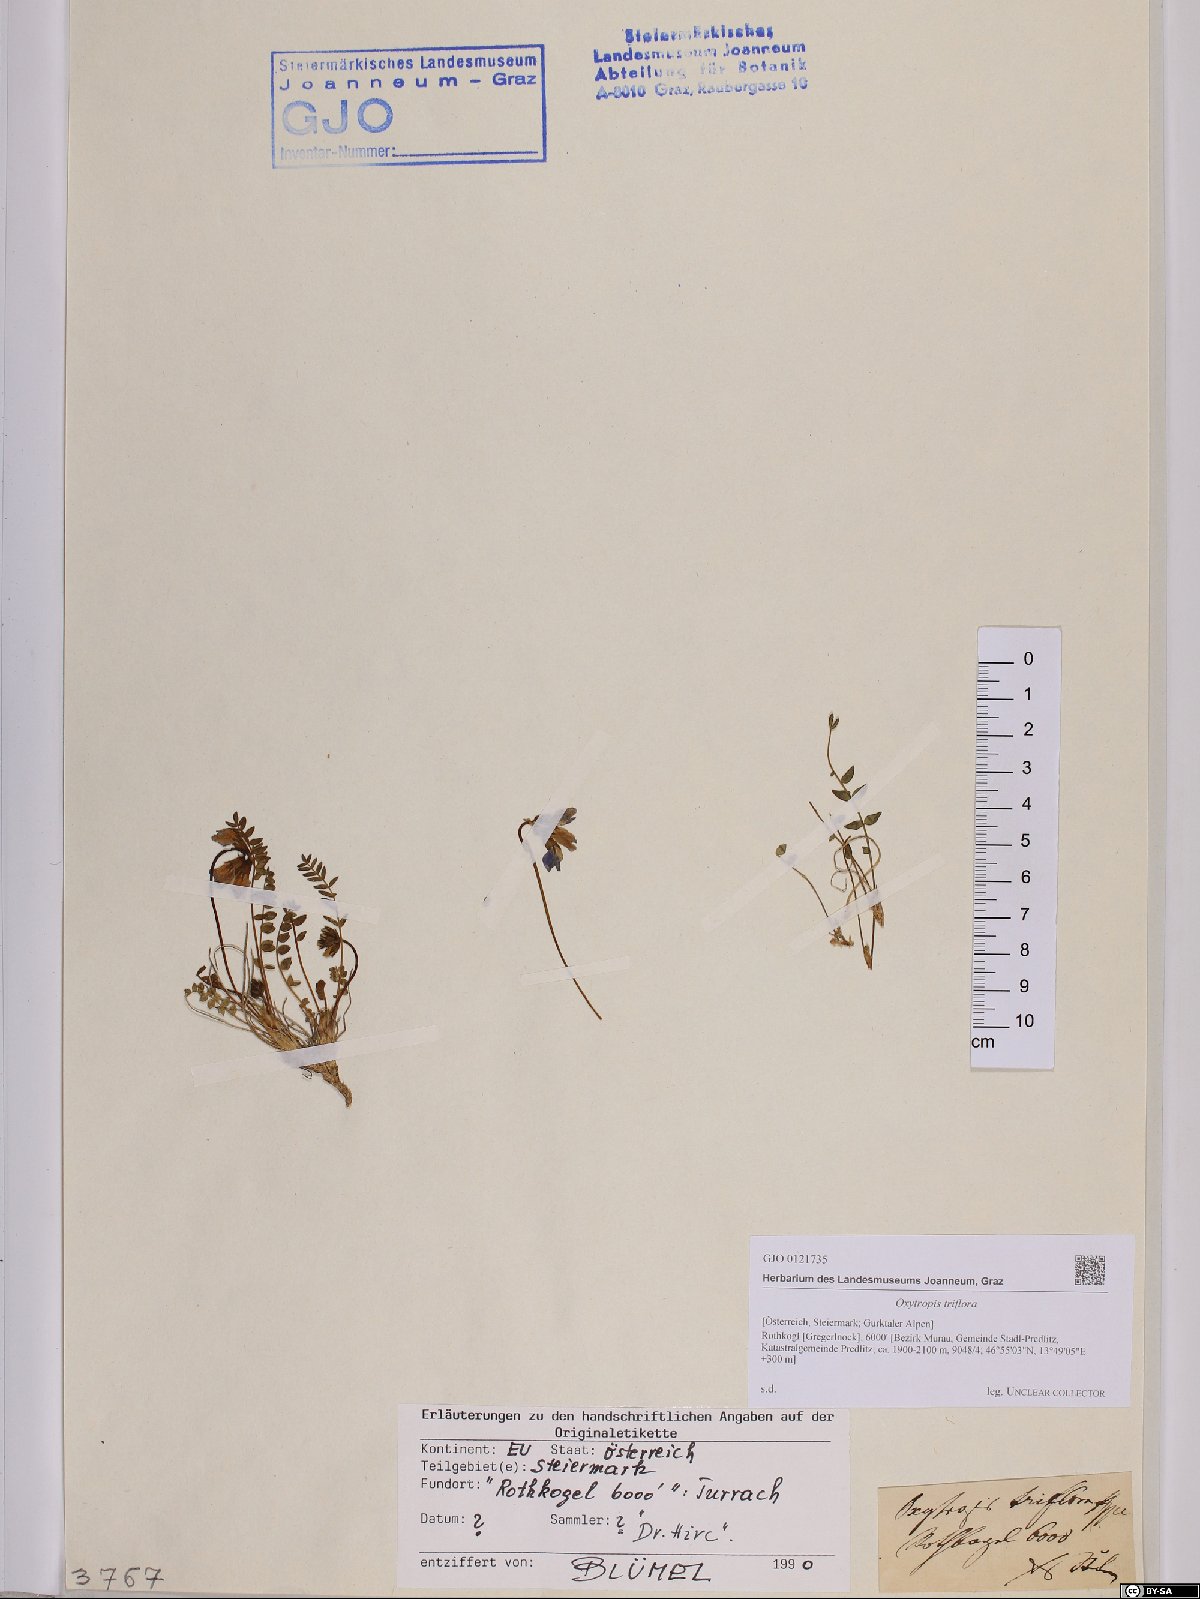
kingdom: Plantae
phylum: Tracheophyta
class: Magnoliopsida
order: Fabales
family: Fabaceae
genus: Oxytropis
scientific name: Oxytropis triflora
